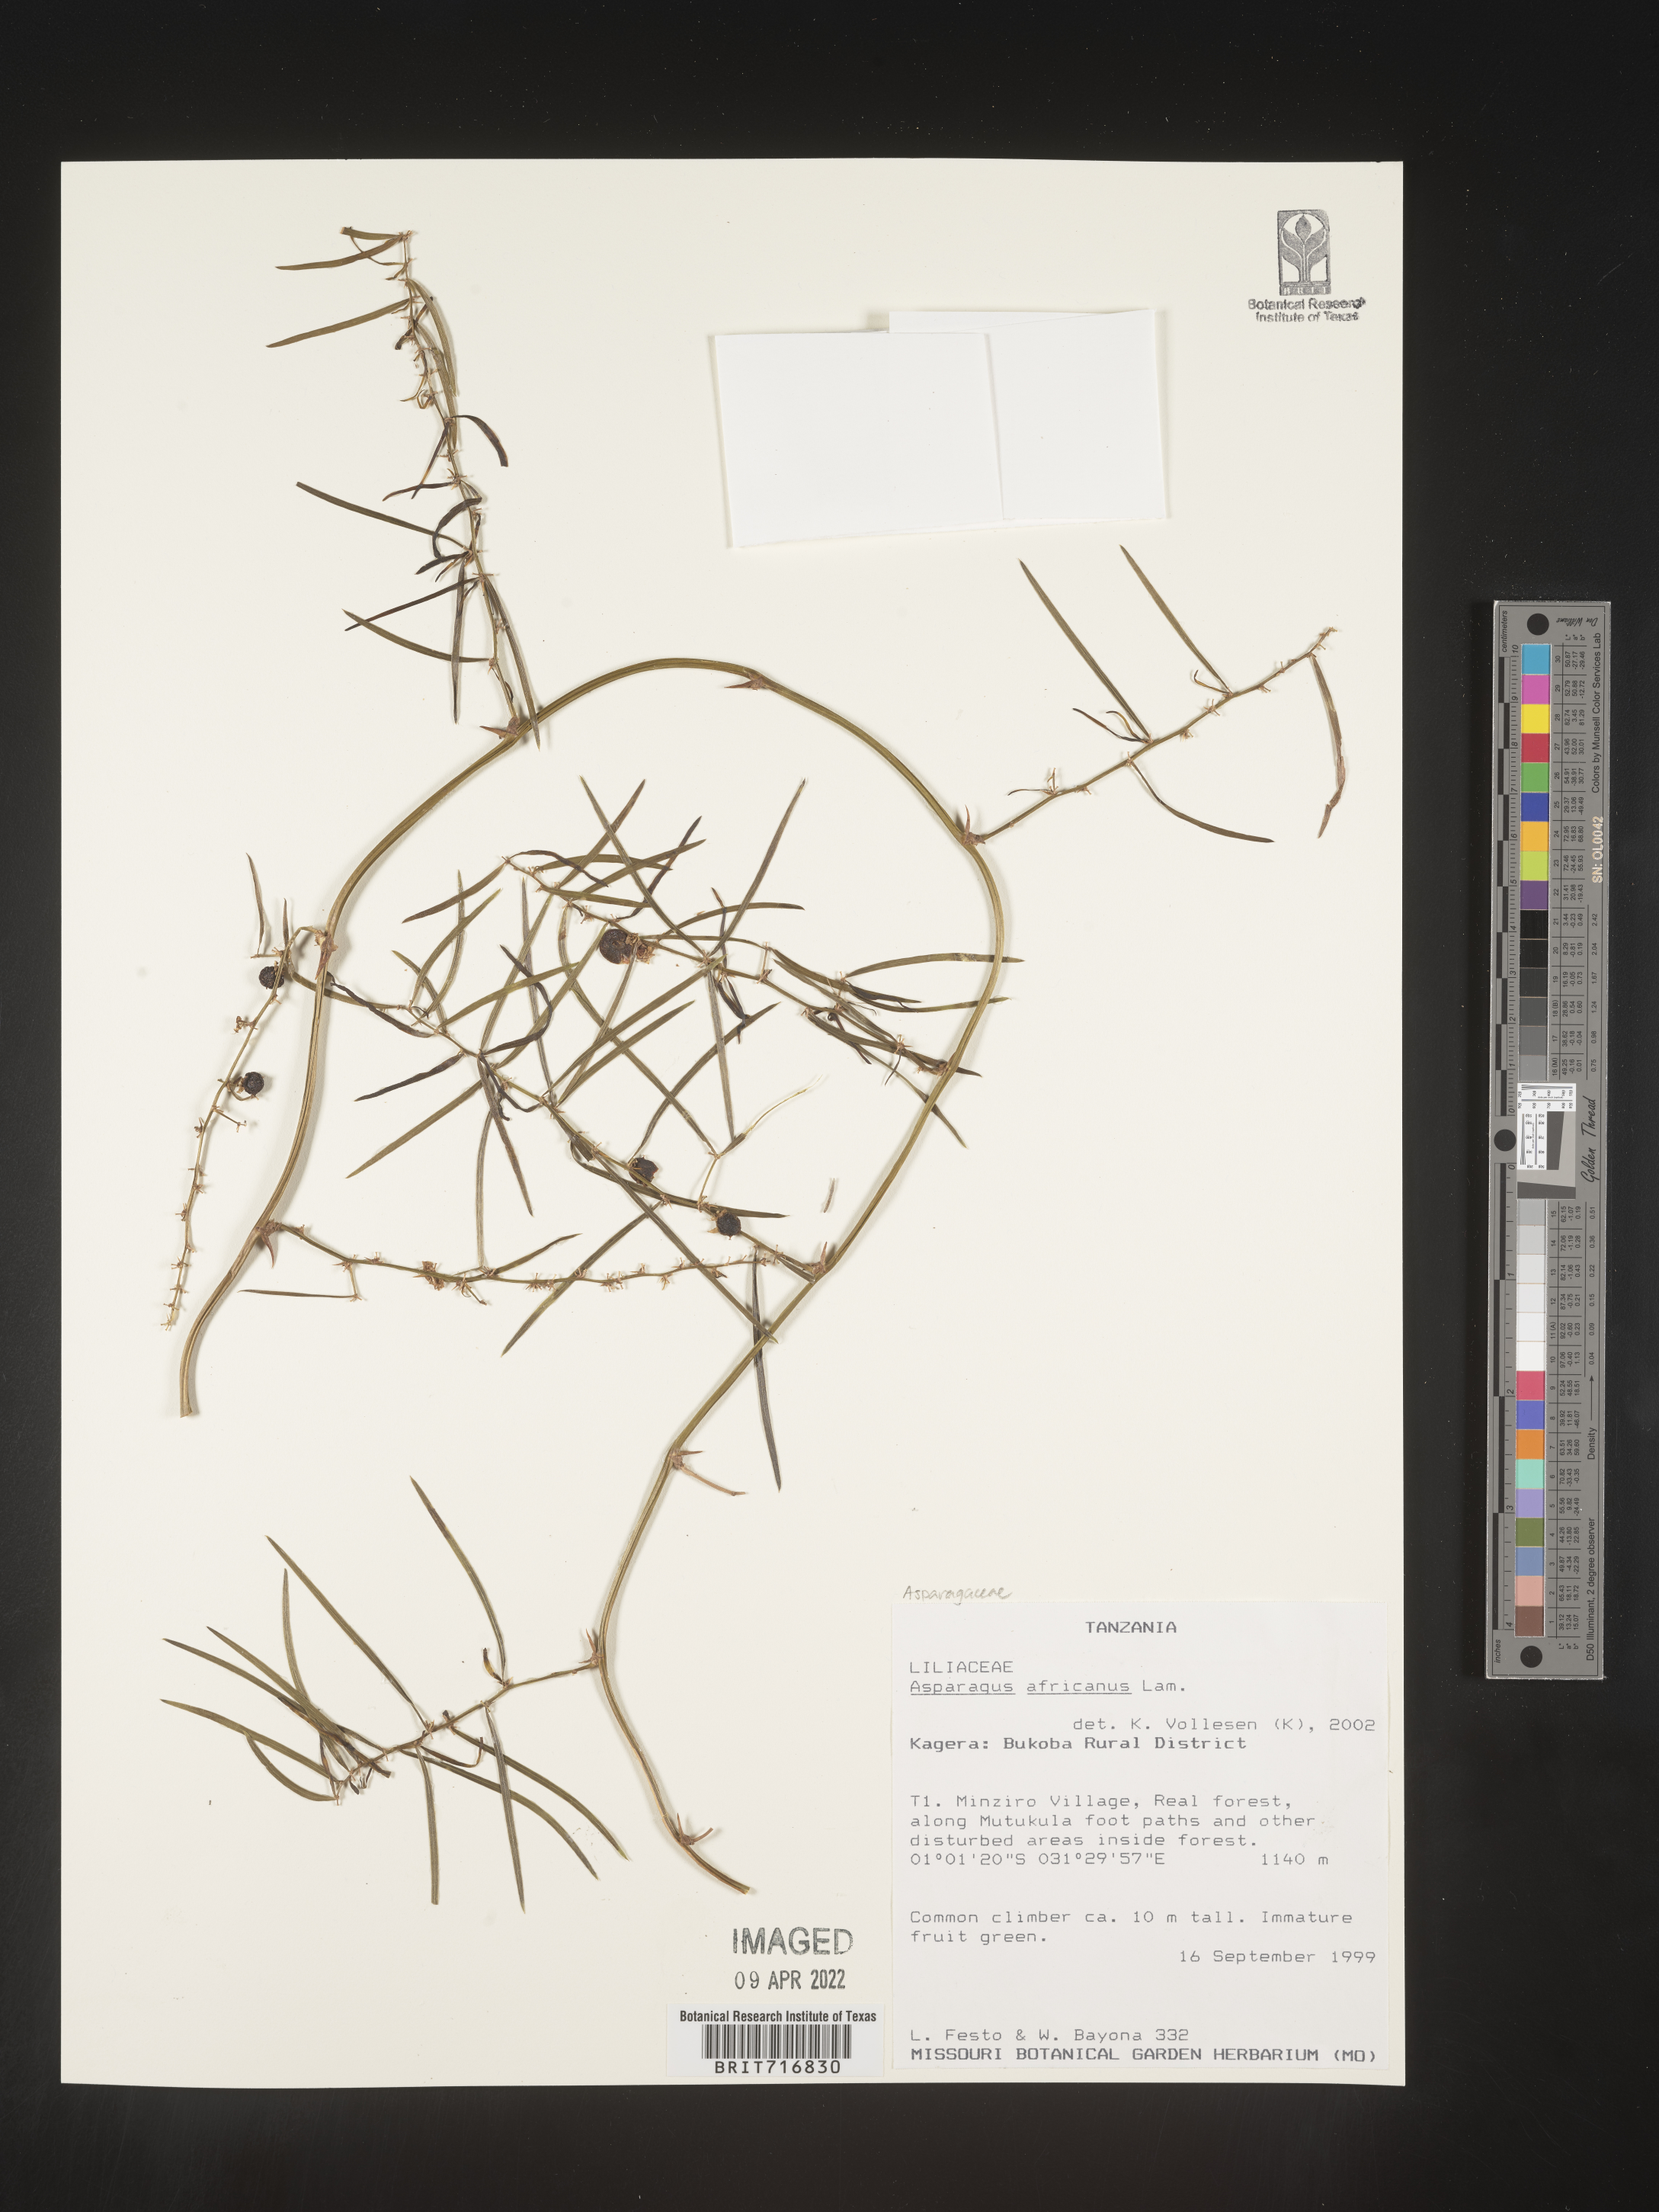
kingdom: Plantae
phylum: Tracheophyta
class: Liliopsida
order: Asparagales
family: Asparagaceae
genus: Asparagus
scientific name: Asparagus
